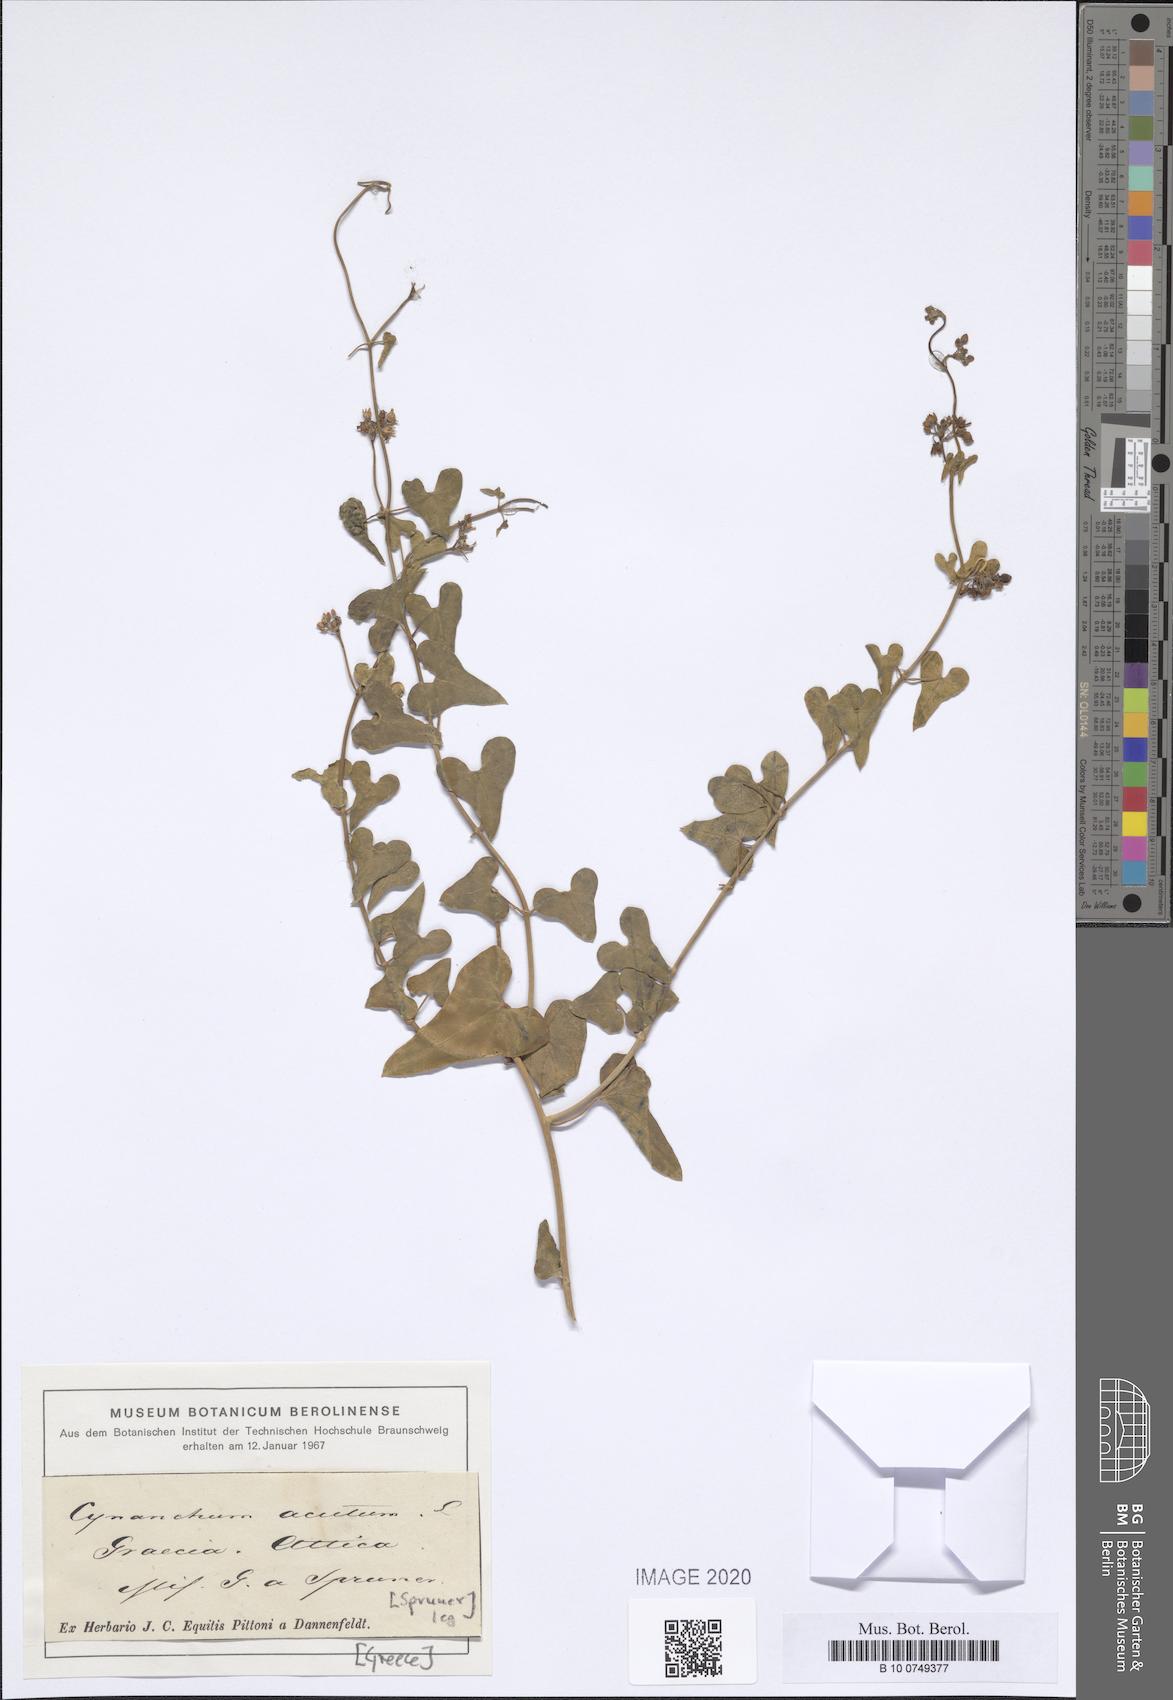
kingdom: Plantae
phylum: Tracheophyta
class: Magnoliopsida
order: Gentianales
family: Apocynaceae
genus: Cynanchum
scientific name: Cynanchum acutum
